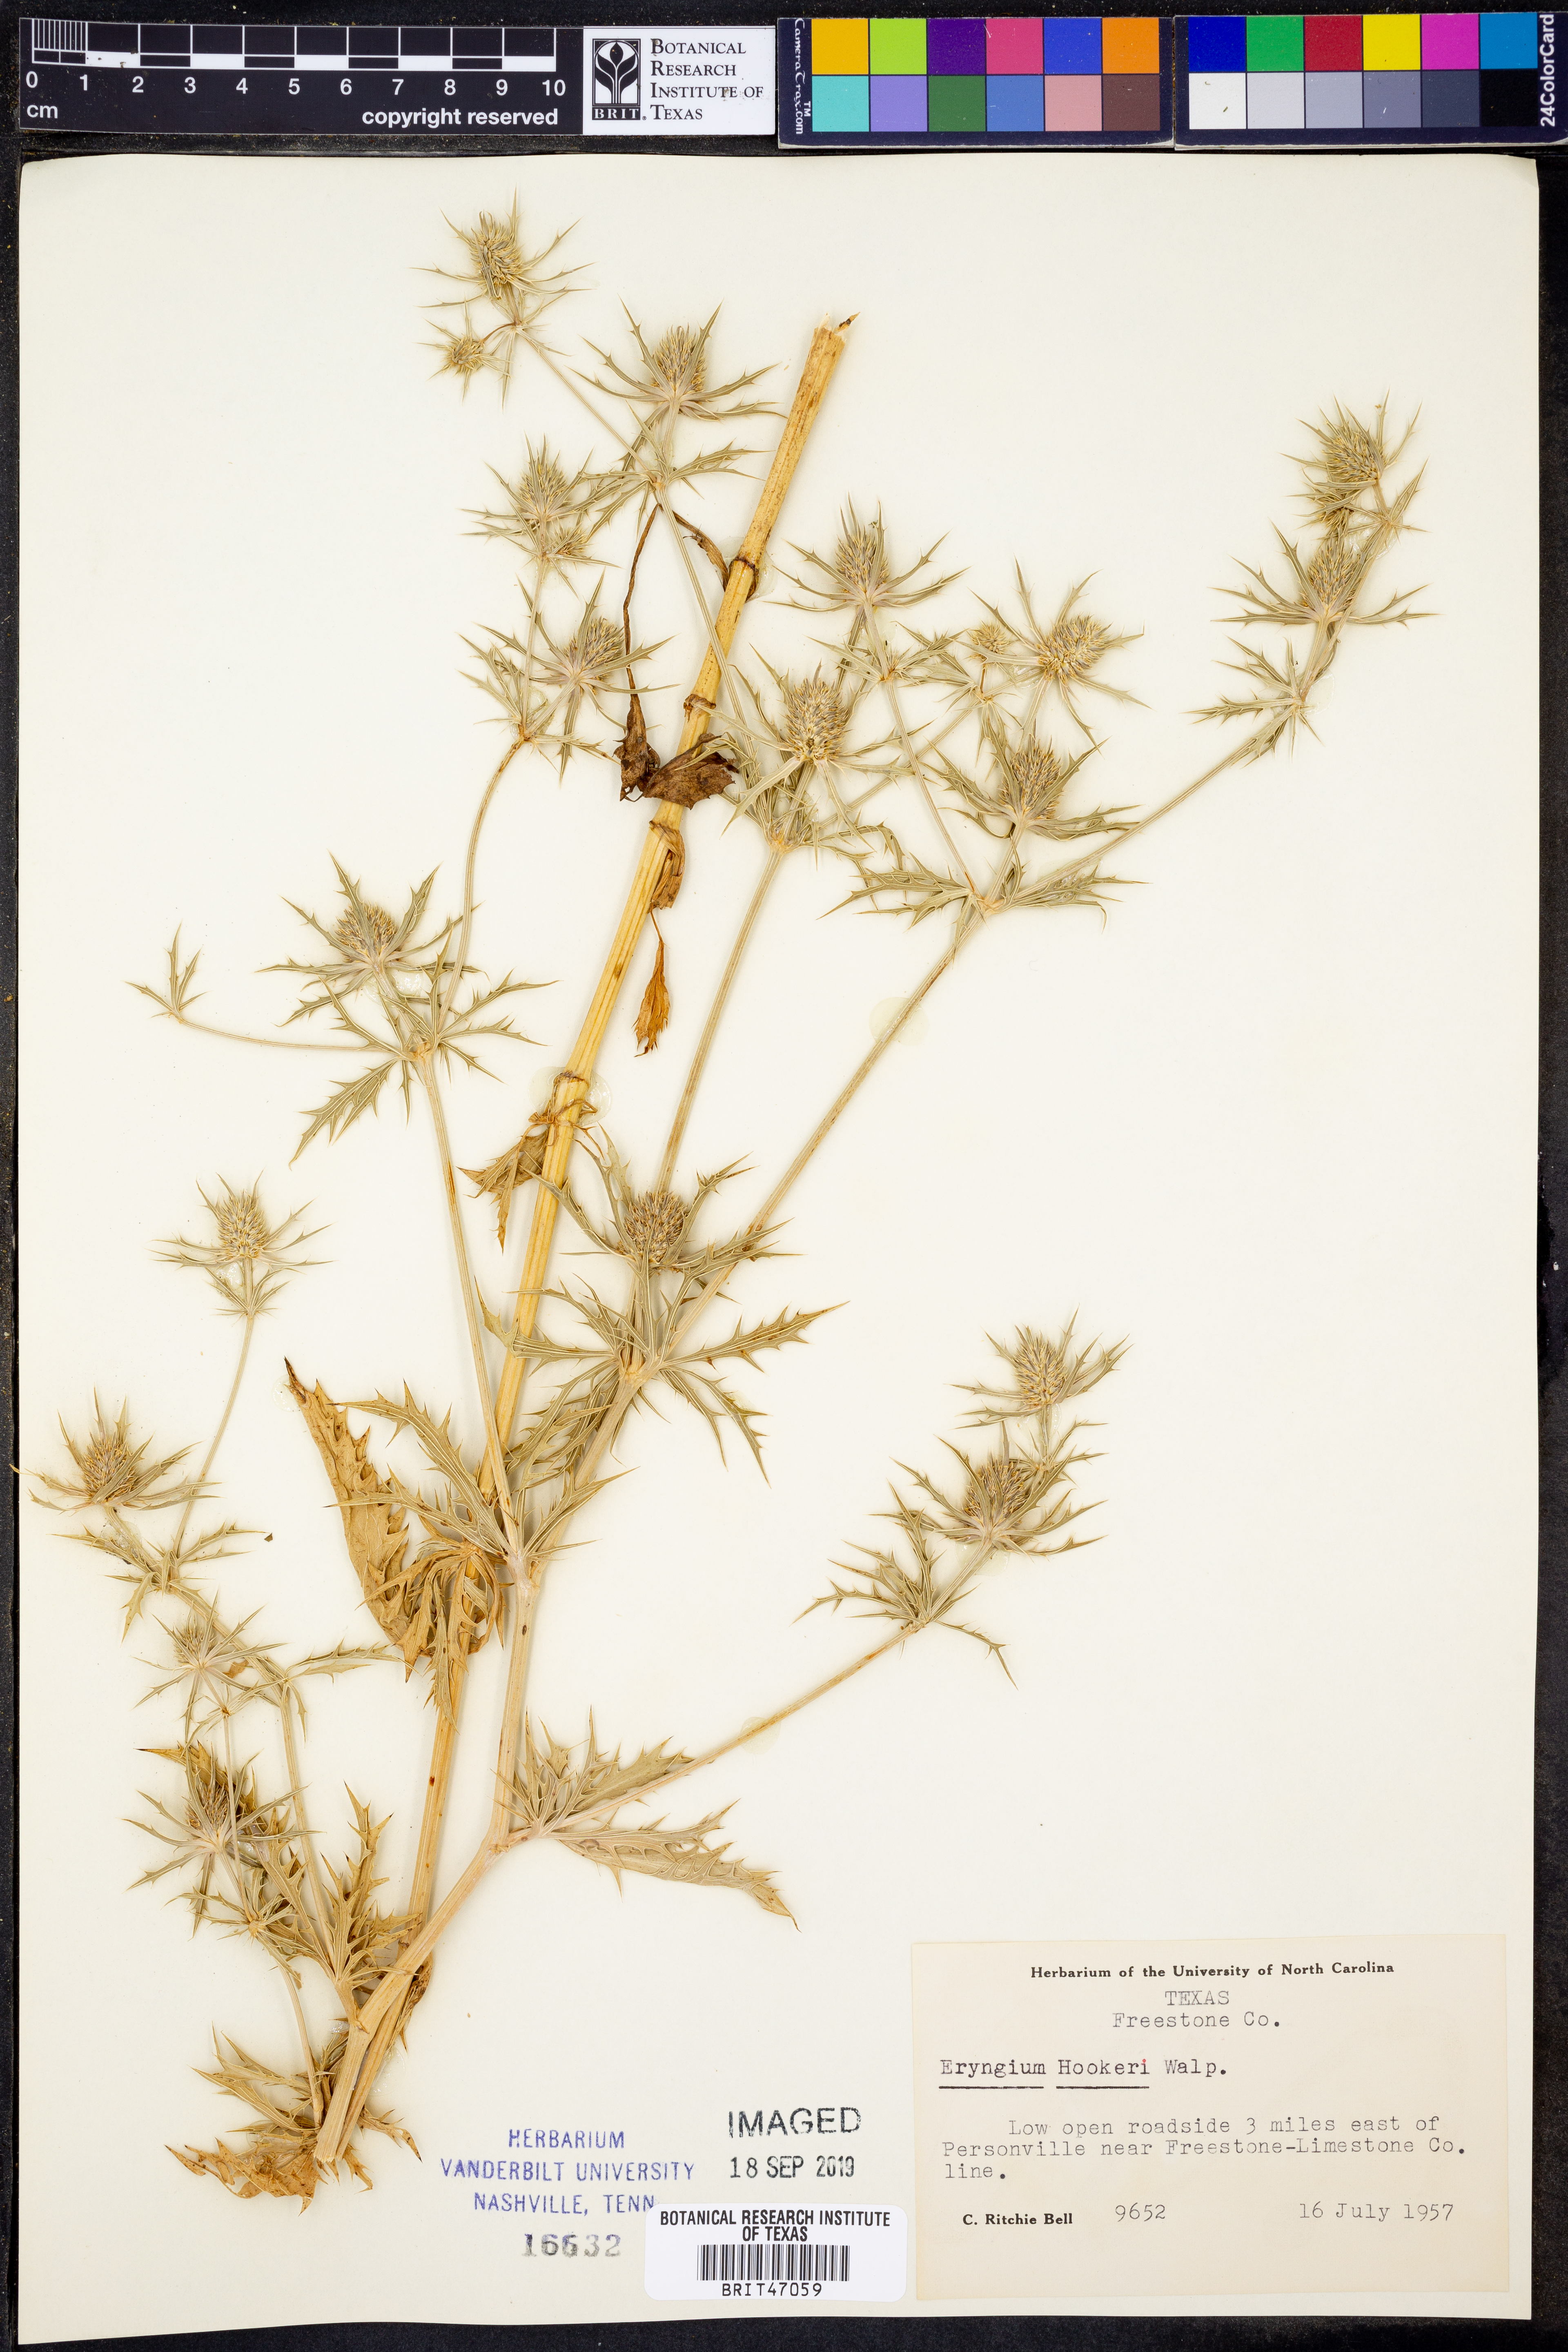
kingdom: Plantae
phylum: Tracheophyta
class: Magnoliopsida
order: Apiales
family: Apiaceae
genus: Eryngium
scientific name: Eryngium hookeri
